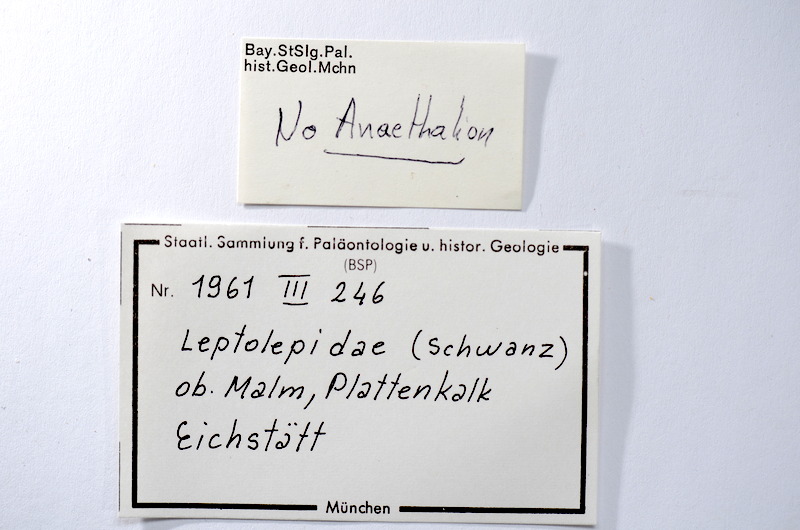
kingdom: Animalia
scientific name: Animalia
